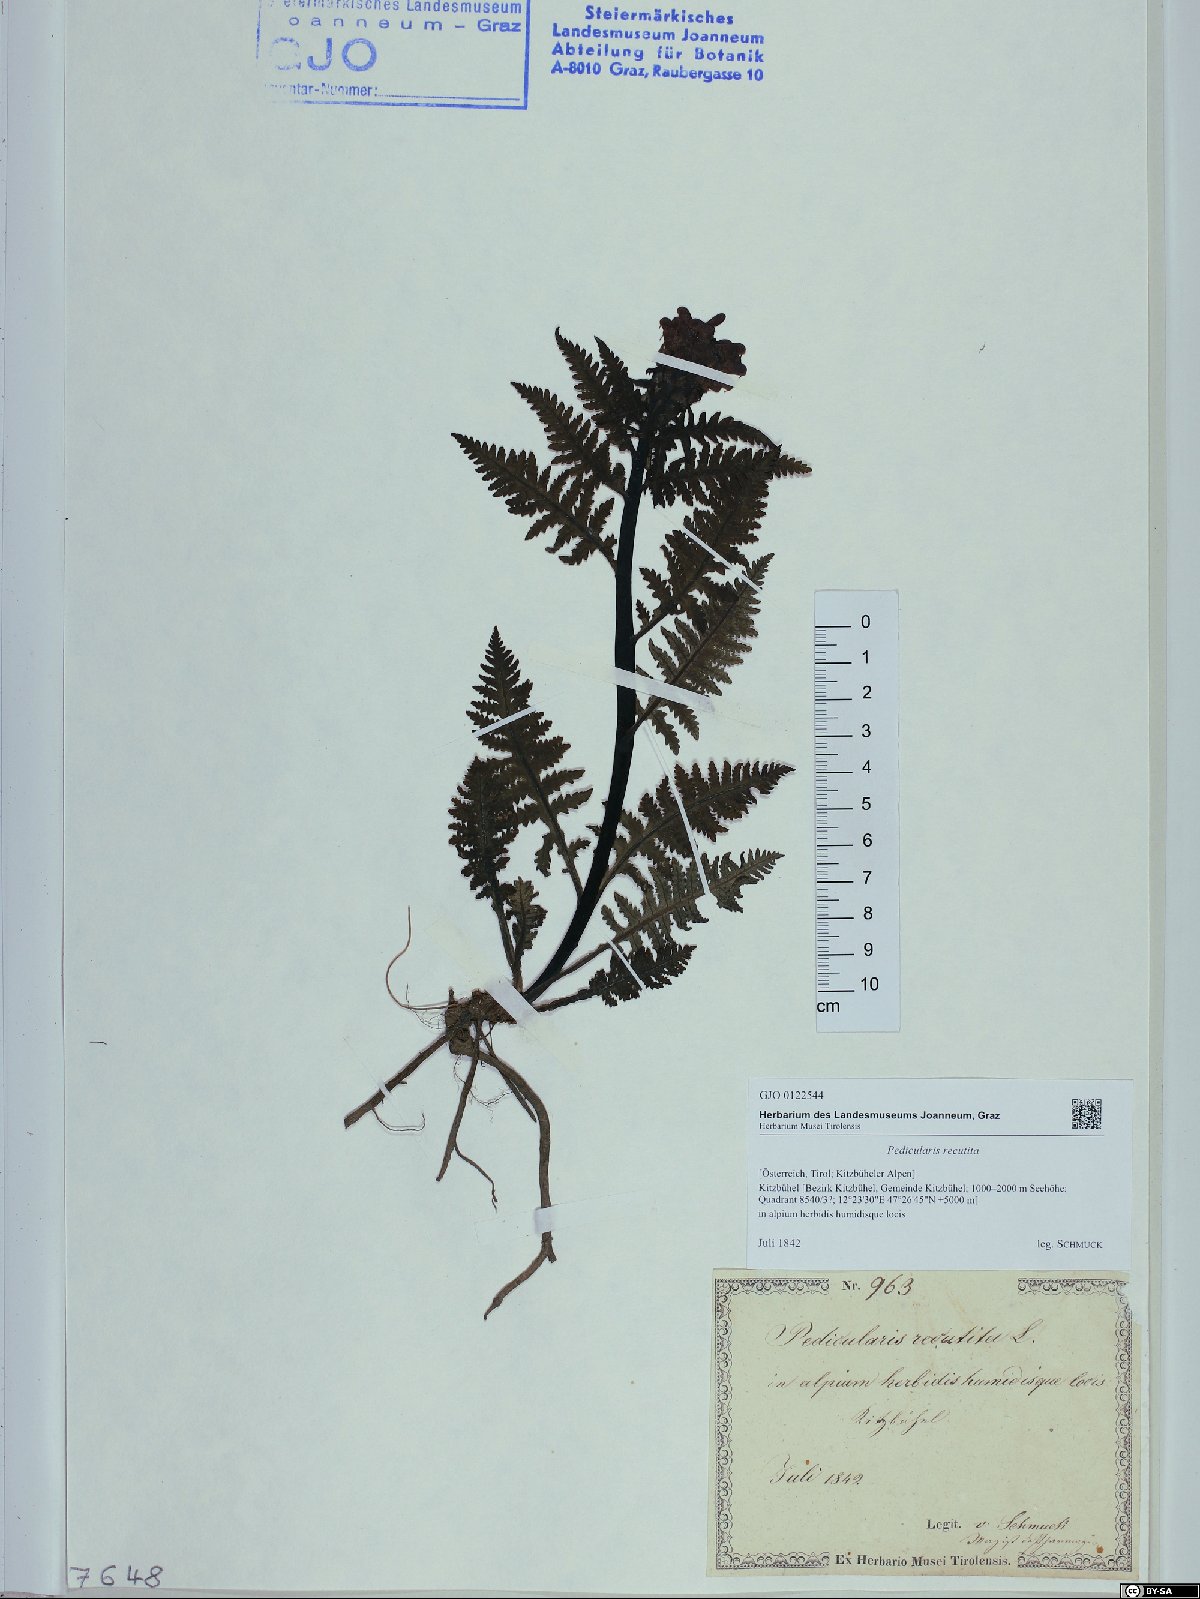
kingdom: Plantae
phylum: Tracheophyta
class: Magnoliopsida
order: Lamiales
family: Orobanchaceae
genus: Pedicularis
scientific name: Pedicularis recutita
